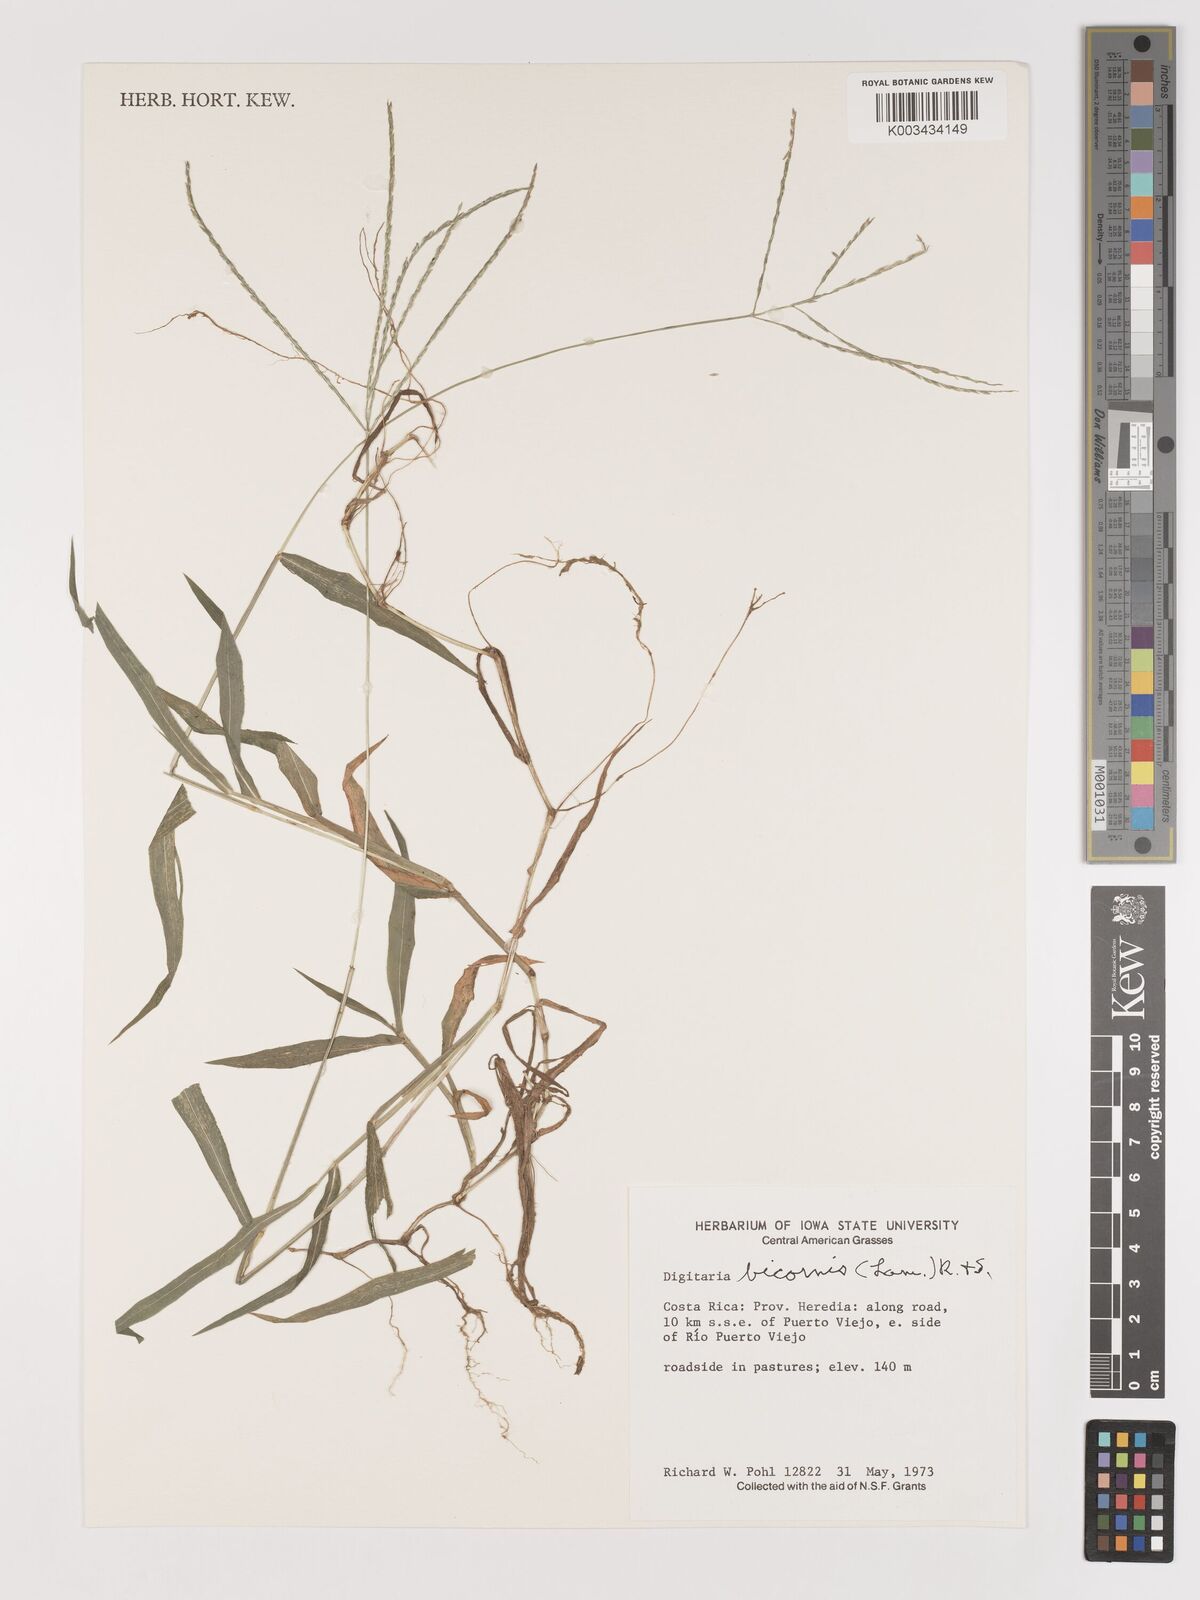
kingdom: Plantae
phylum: Tracheophyta
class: Liliopsida
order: Poales
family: Poaceae
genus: Digitaria
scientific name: Digitaria ciliaris
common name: Tropical finger-grass
